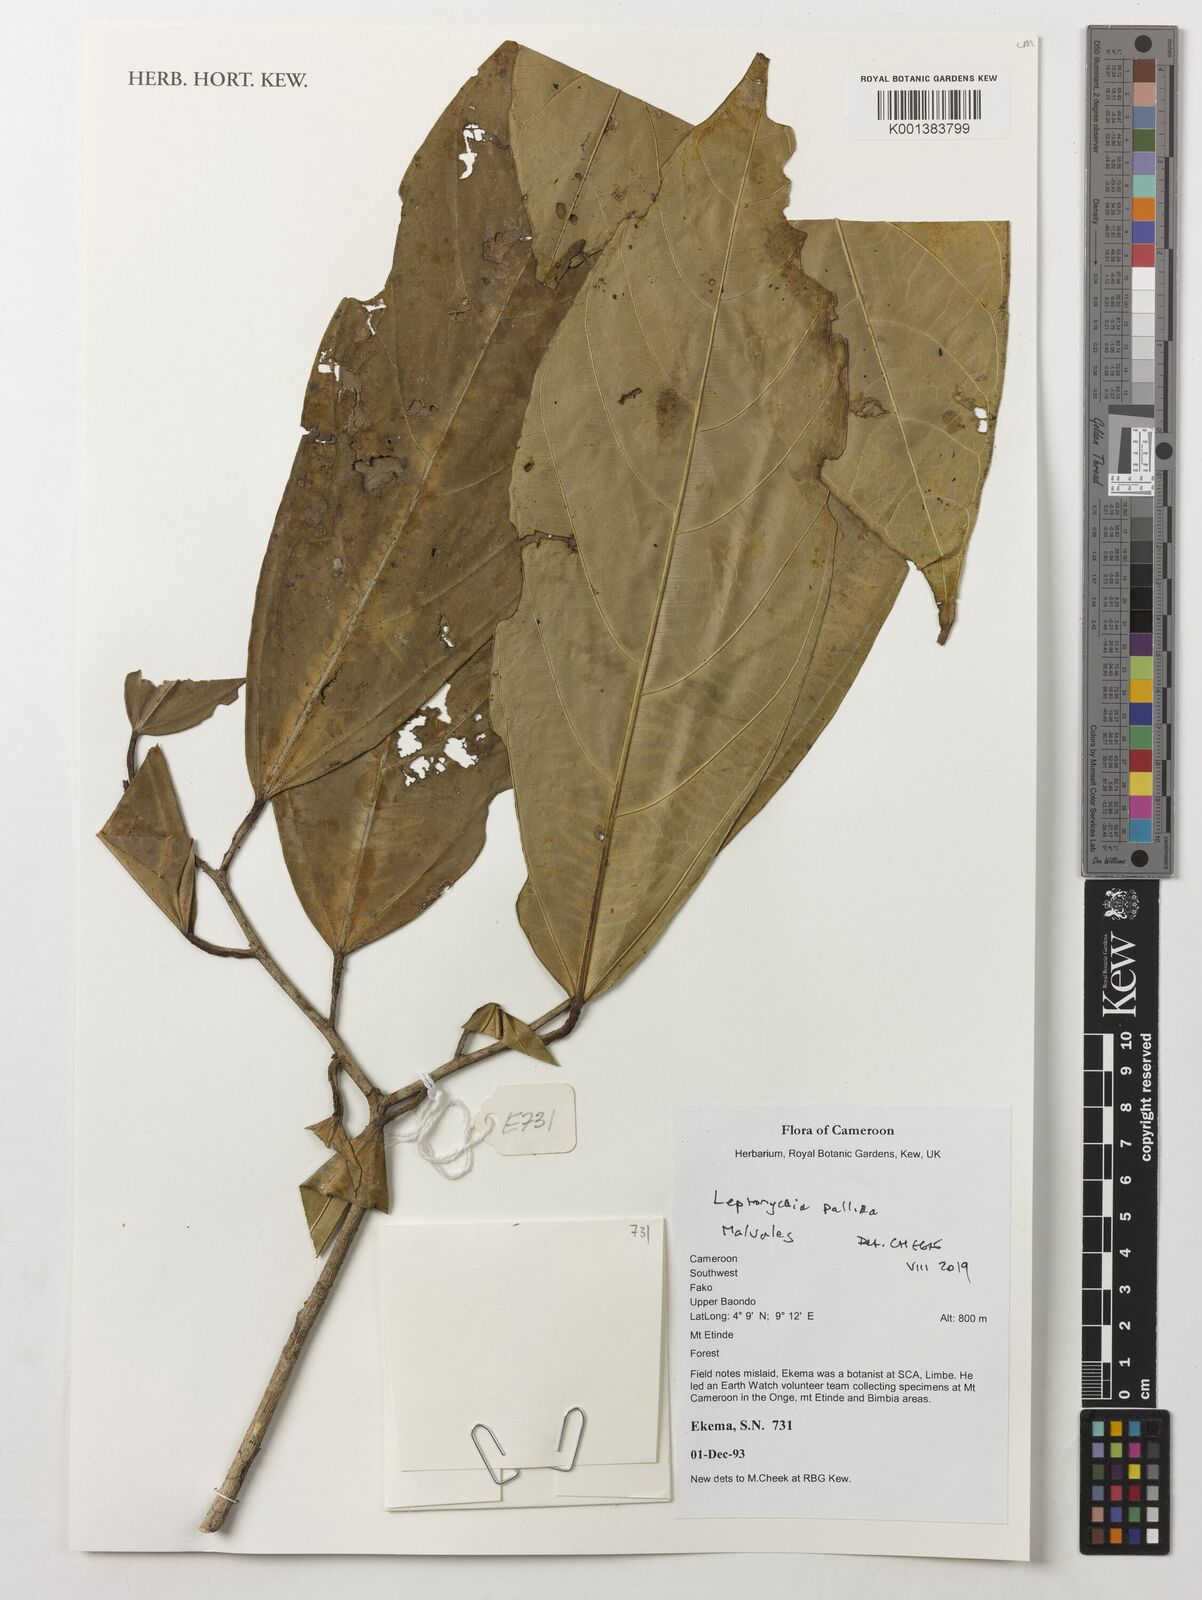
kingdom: Plantae
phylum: Tracheophyta
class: Magnoliopsida
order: Malvales
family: Malvaceae
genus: Leptonychia
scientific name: Leptonychia pallida
